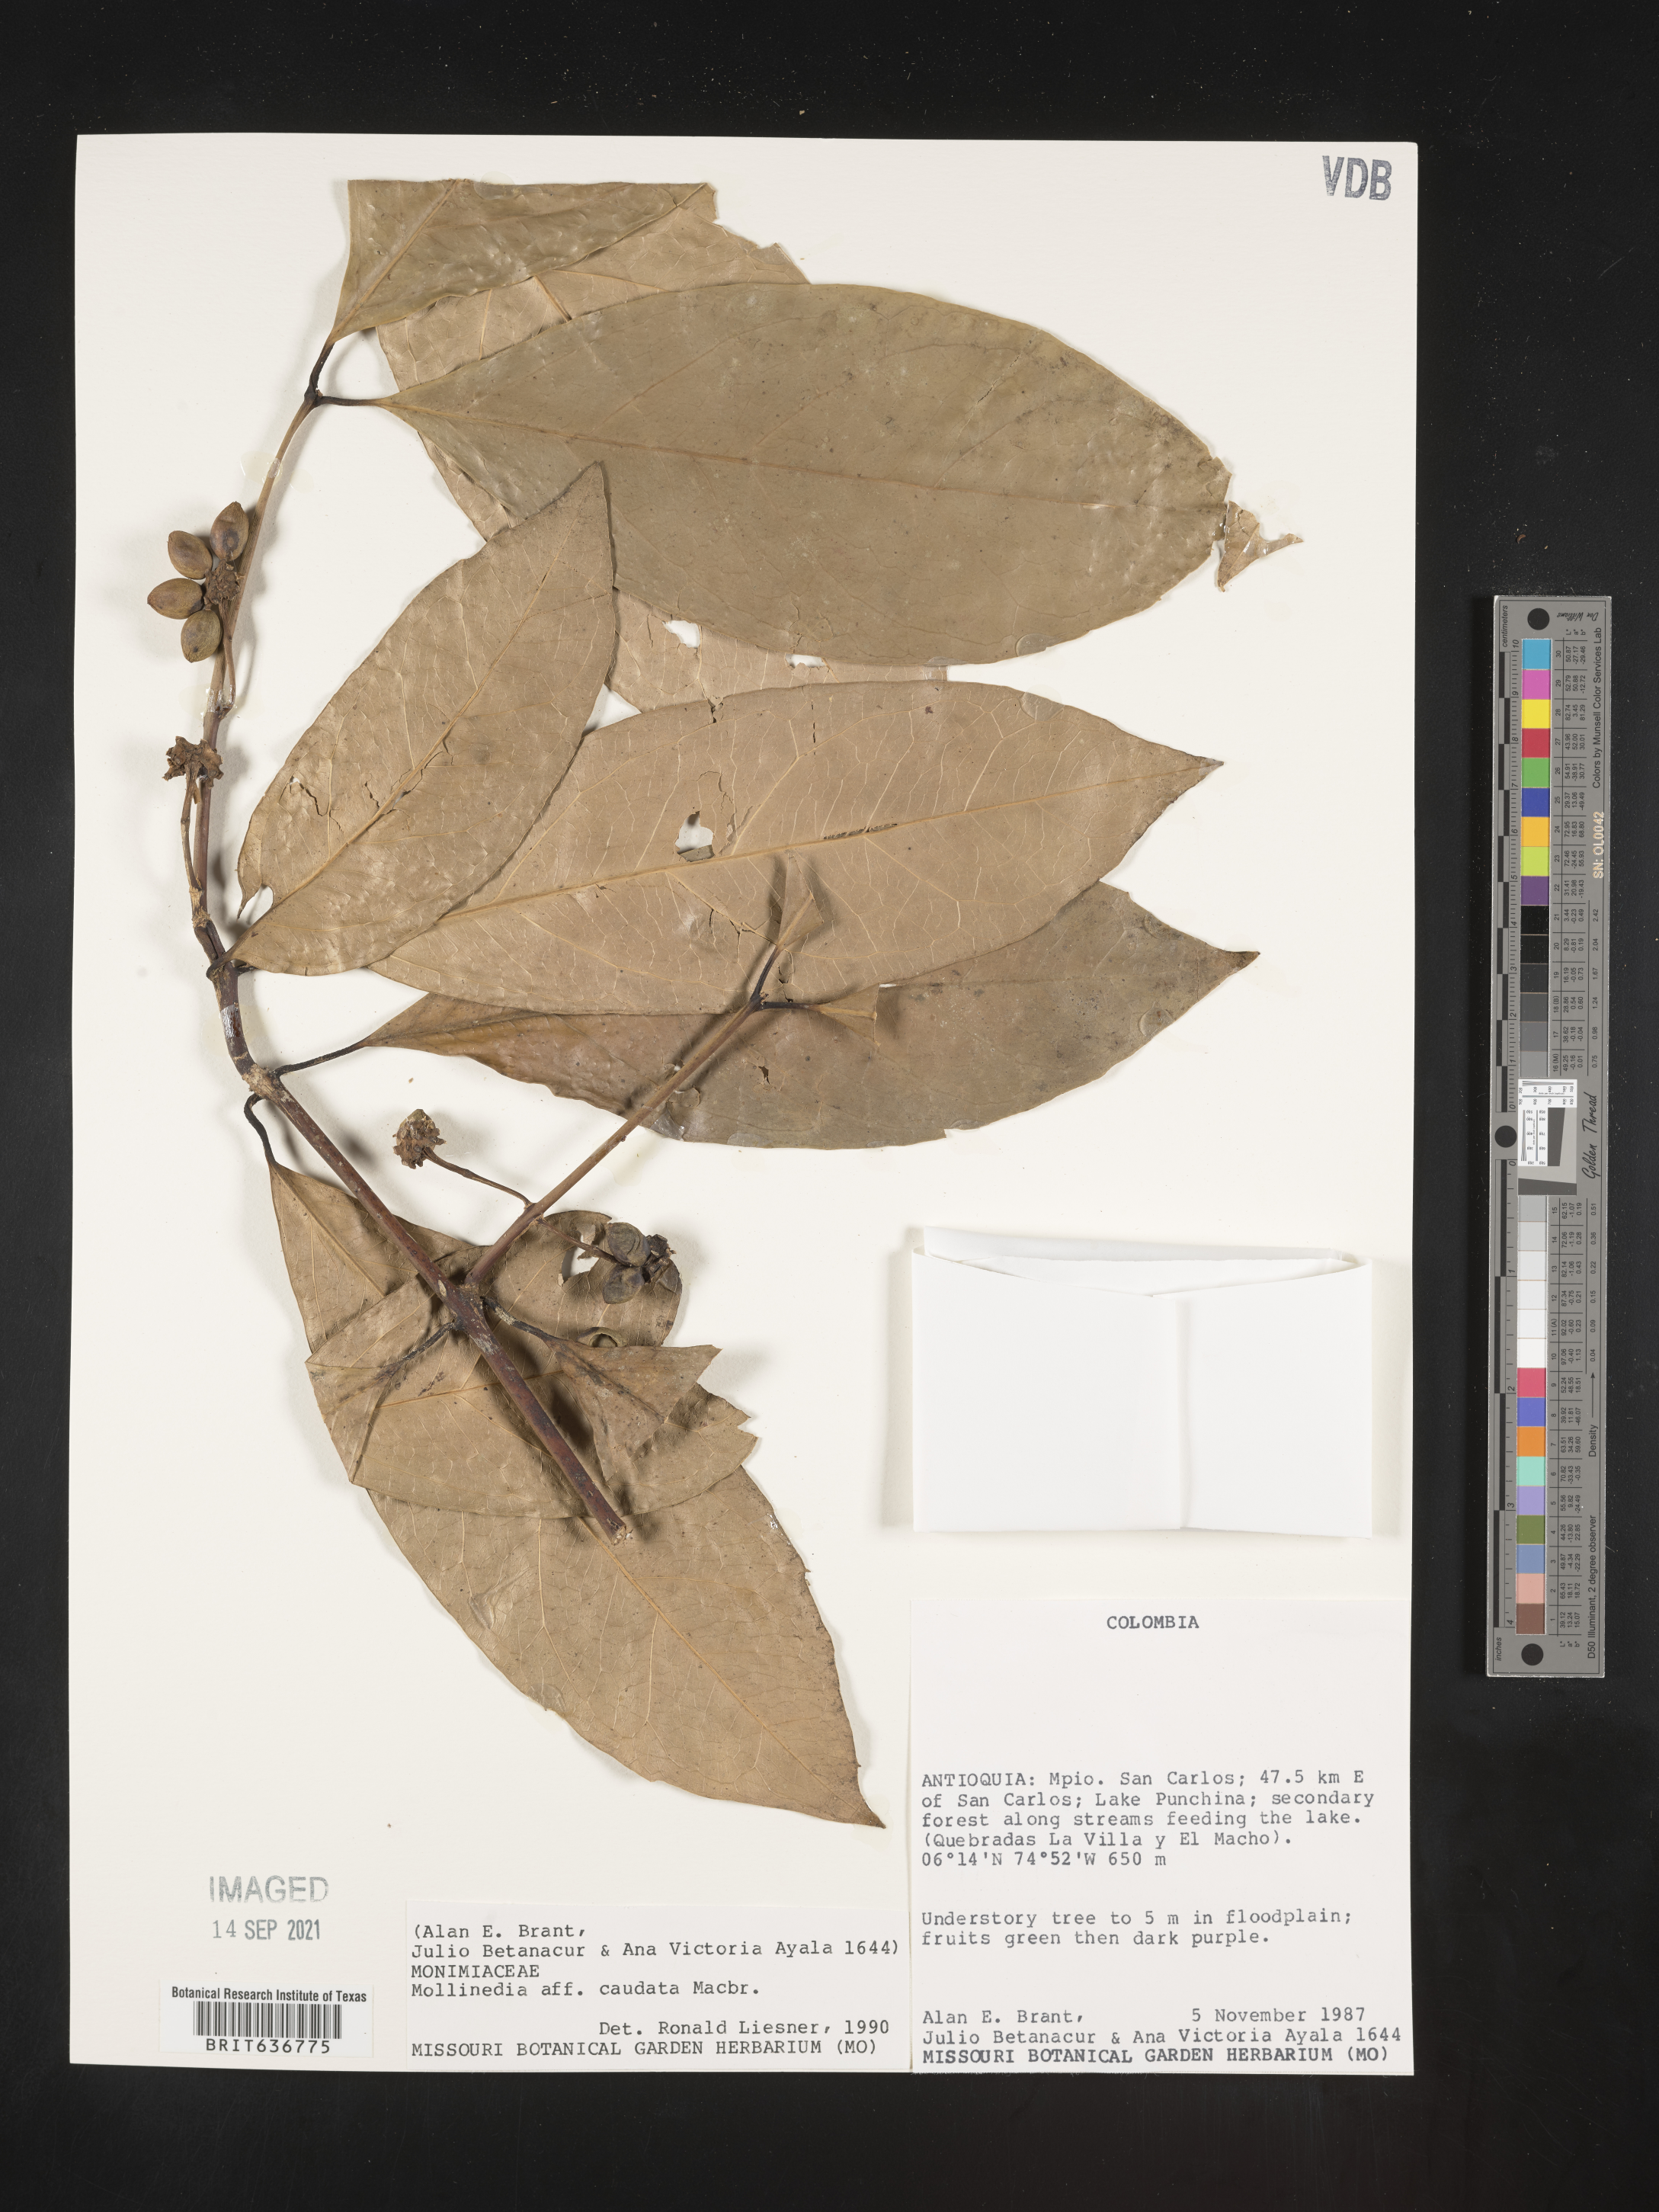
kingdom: Plantae
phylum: Tracheophyta
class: Magnoliopsida
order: Laurales
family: Monimiaceae
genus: Mollinedia
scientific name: Mollinedia
